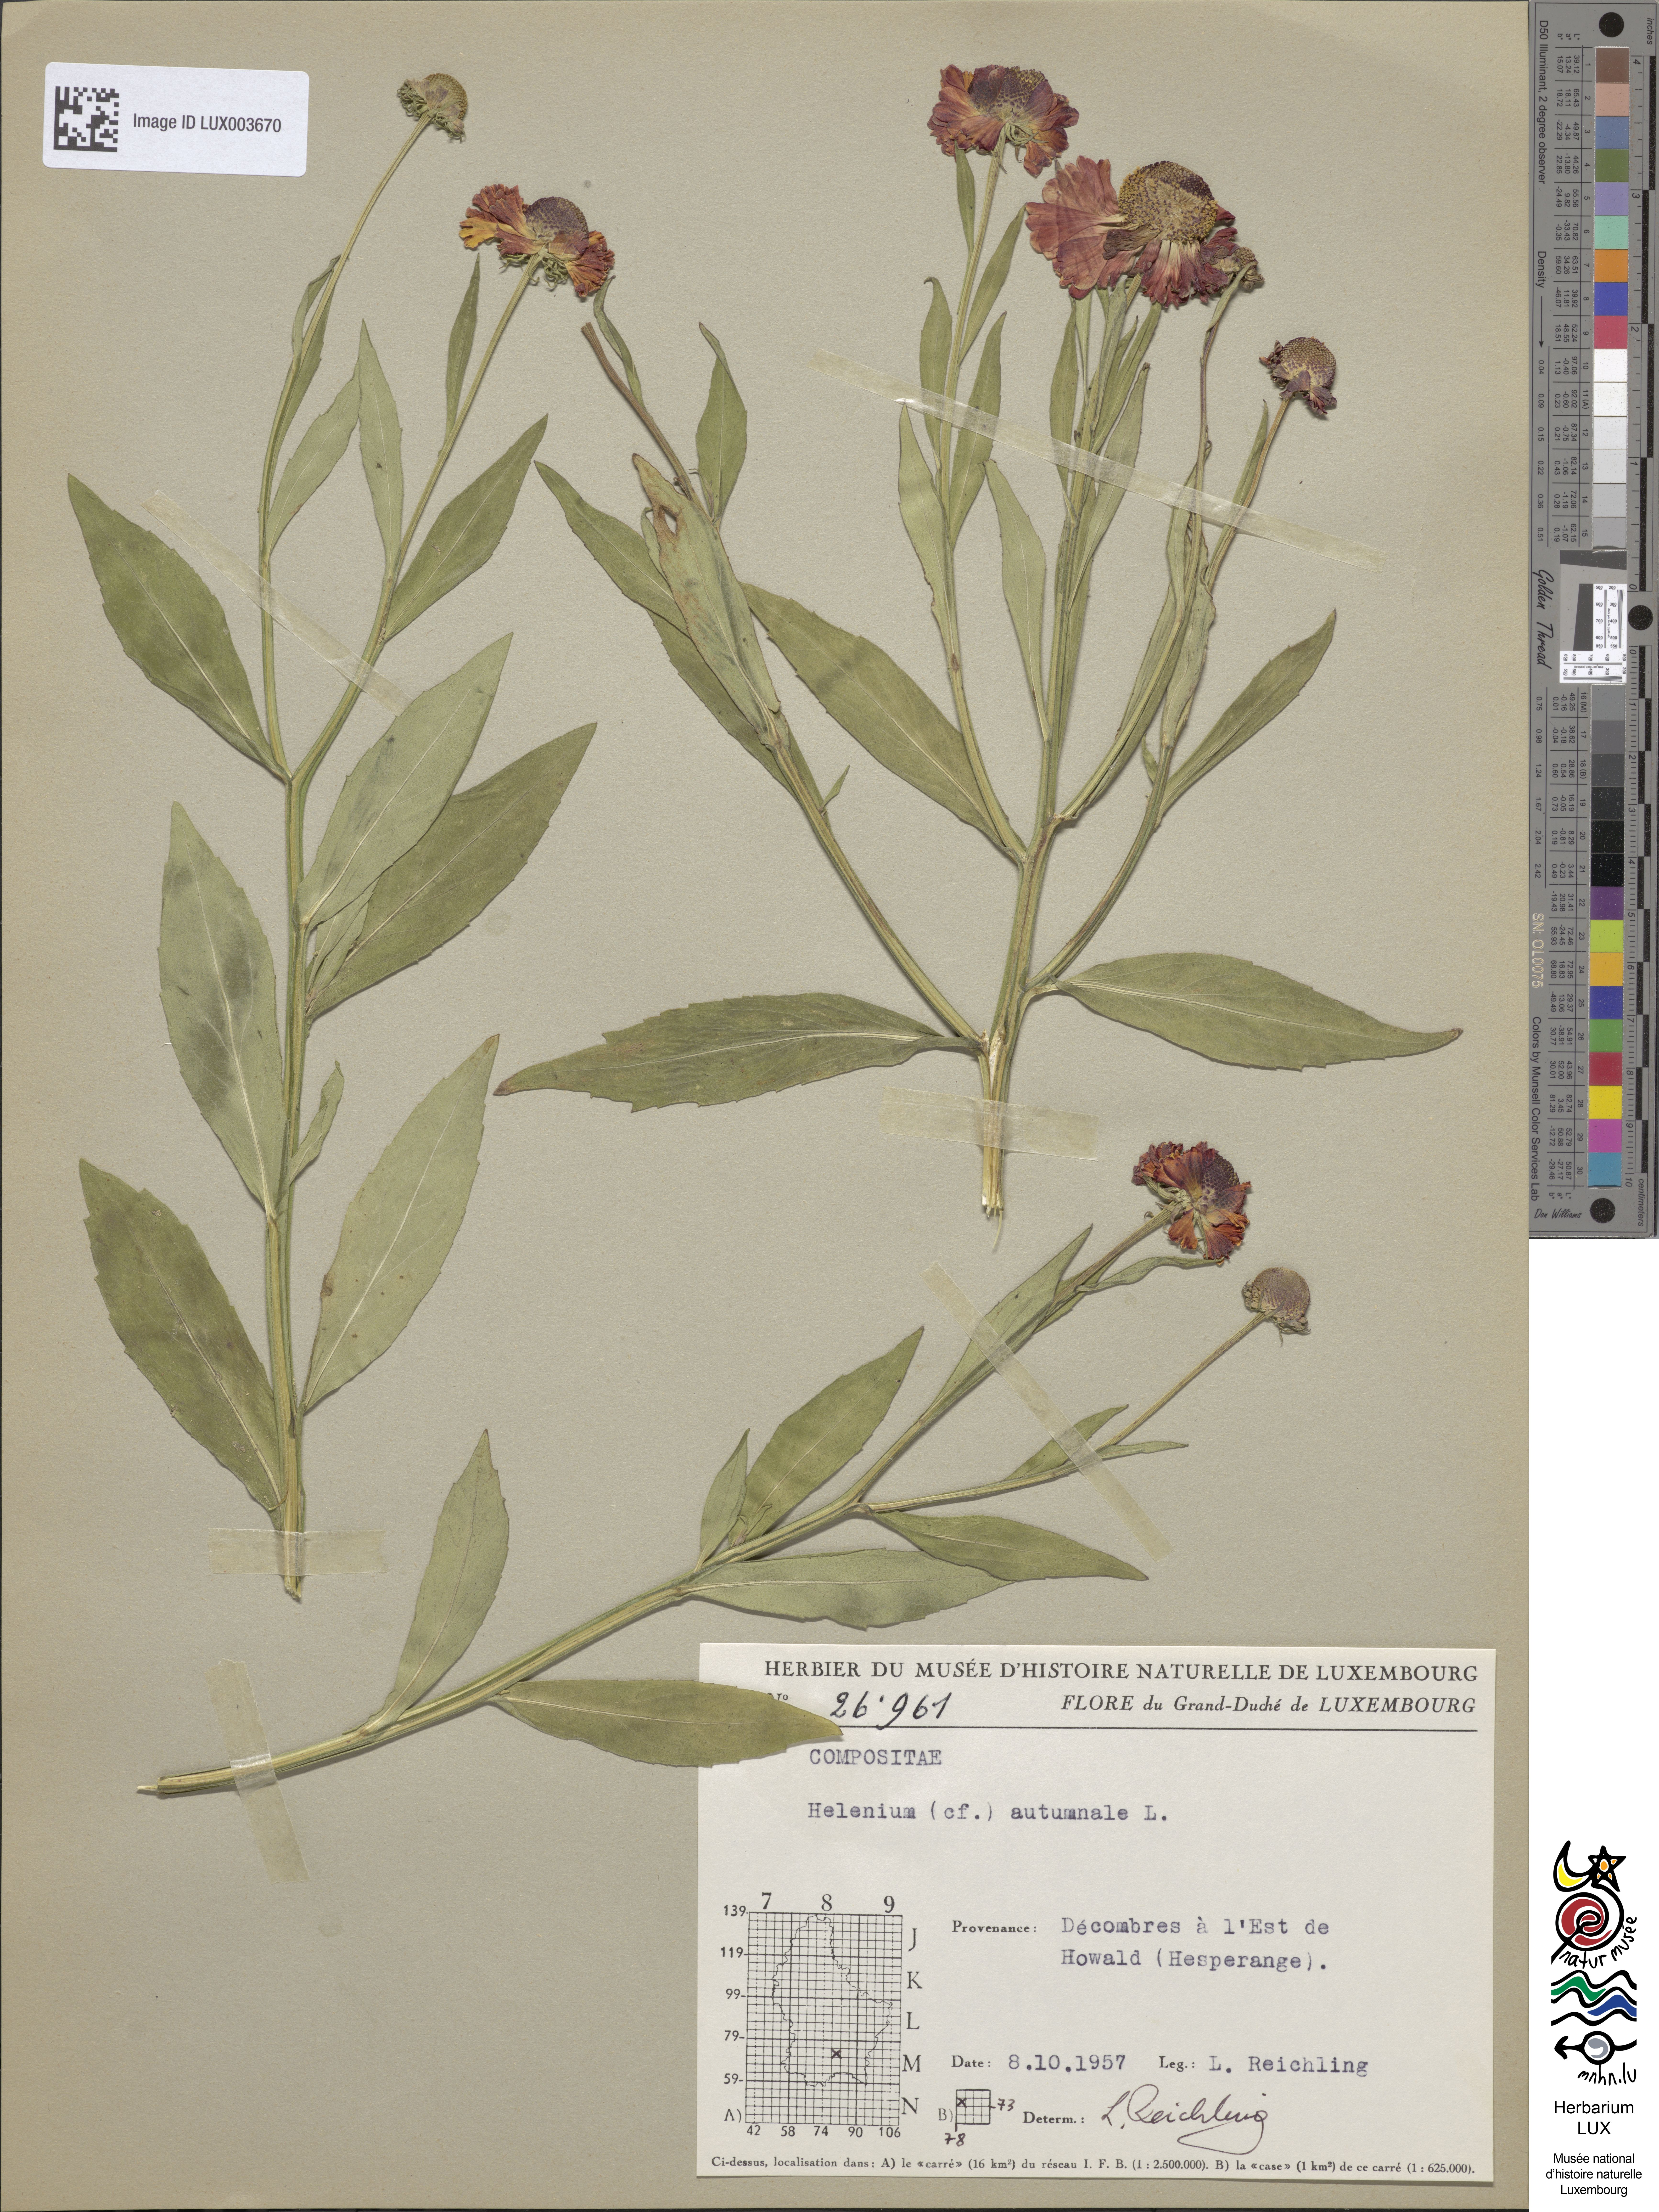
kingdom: Plantae
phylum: Tracheophyta
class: Magnoliopsida
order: Asterales
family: Asteraceae
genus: Helenium
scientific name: Helenium autumnale
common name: Sneezeweed
